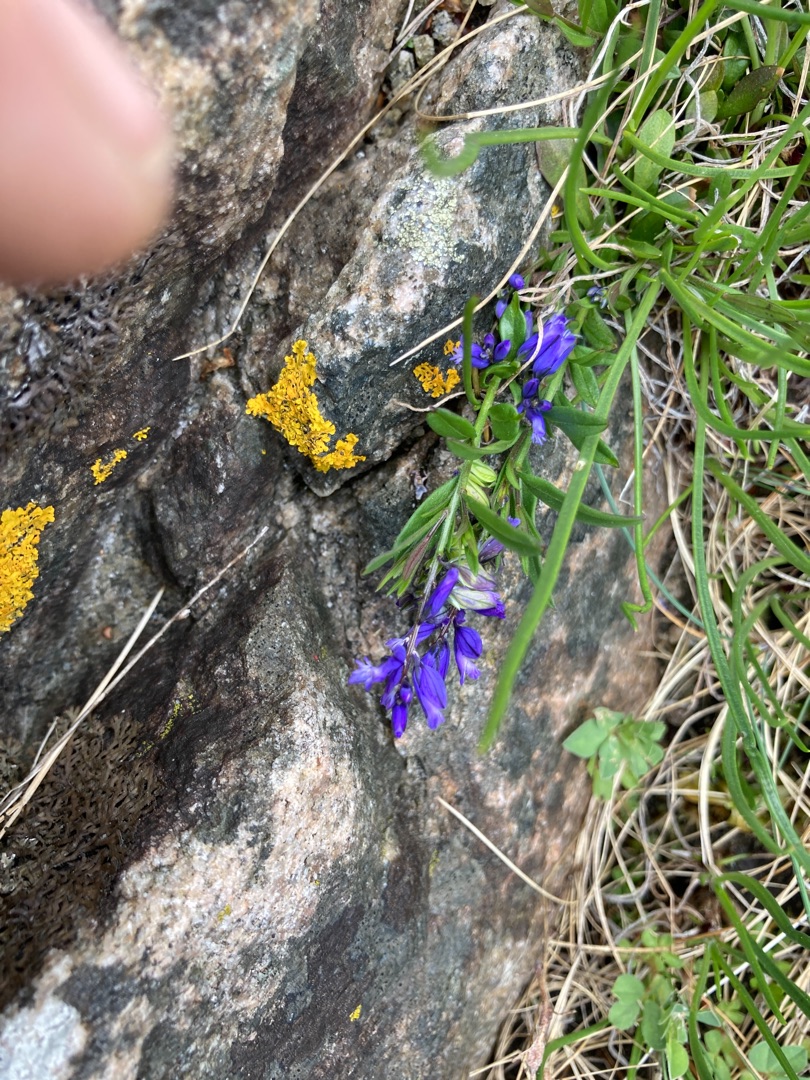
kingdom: Plantae
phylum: Tracheophyta
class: Magnoliopsida
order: Fabales
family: Polygalaceae
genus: Polygala
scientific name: Polygala vulgaris
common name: Almindelig mælkeurt
